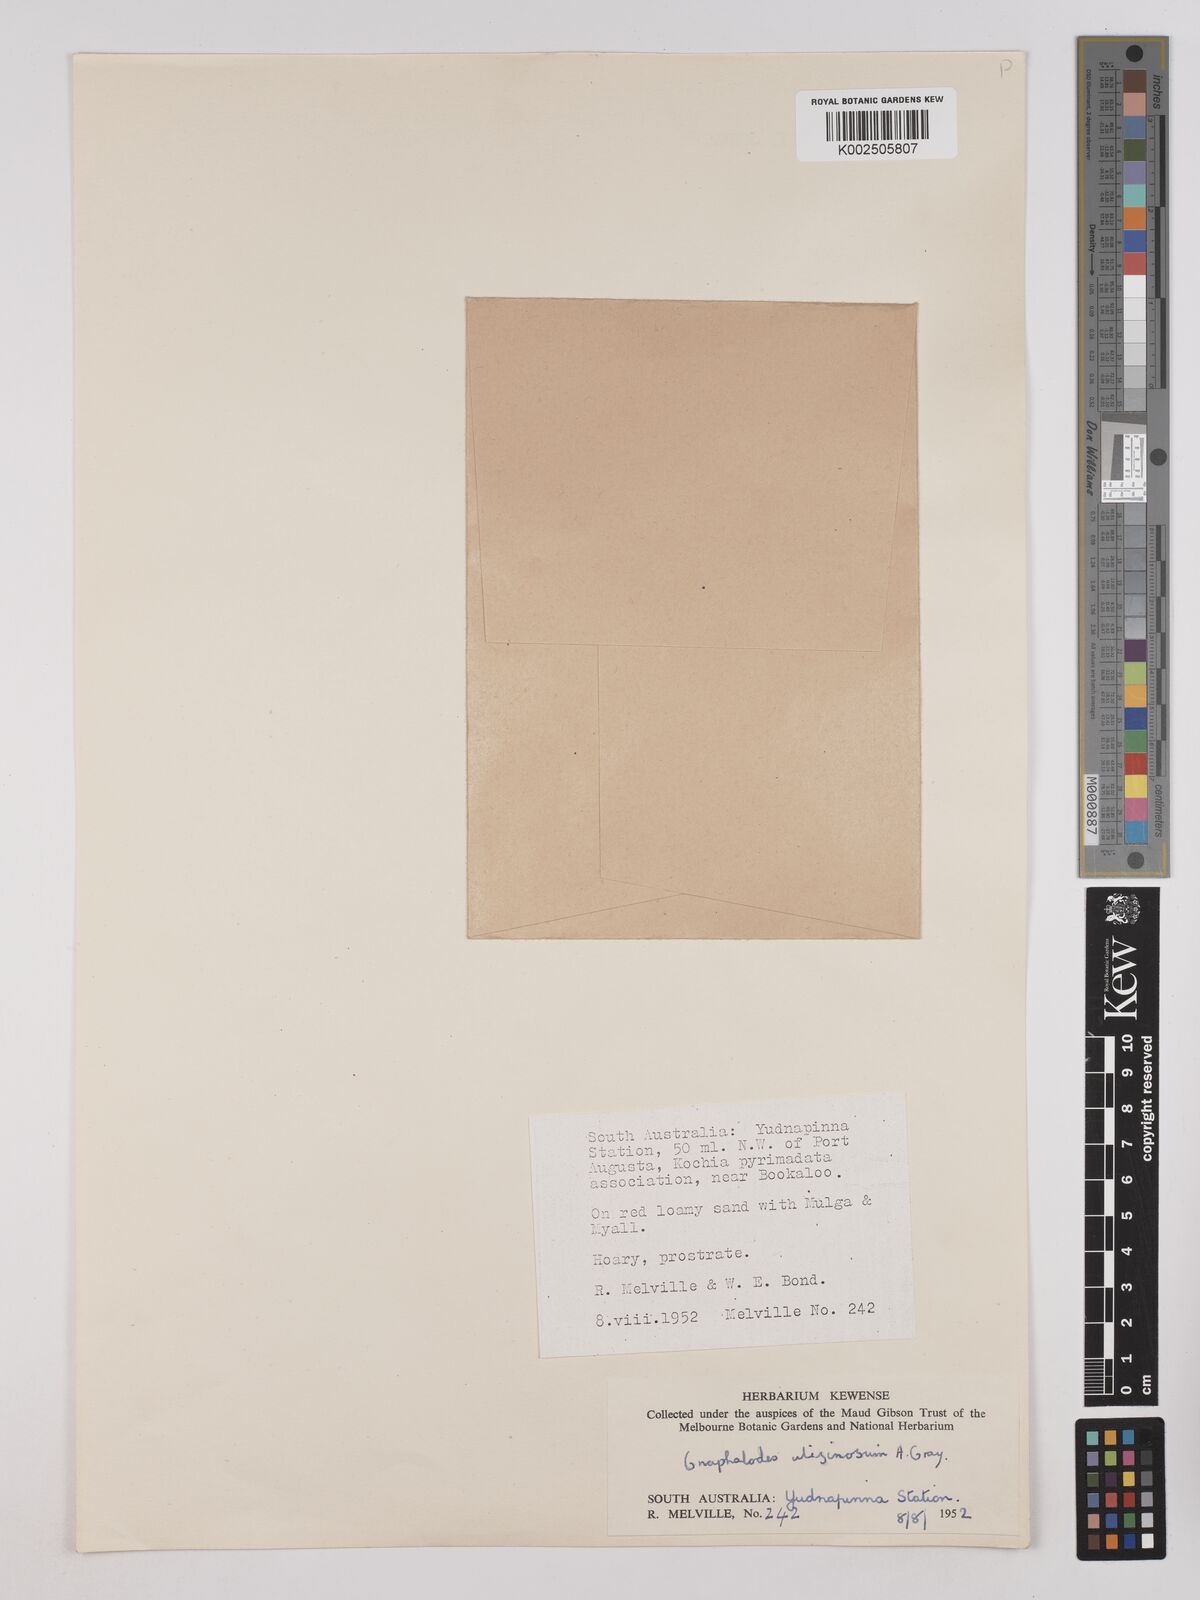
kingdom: Plantae
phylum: Tracheophyta
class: Magnoliopsida
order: Asterales
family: Asteraceae
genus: Actinobole
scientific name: Actinobole uliginosum
